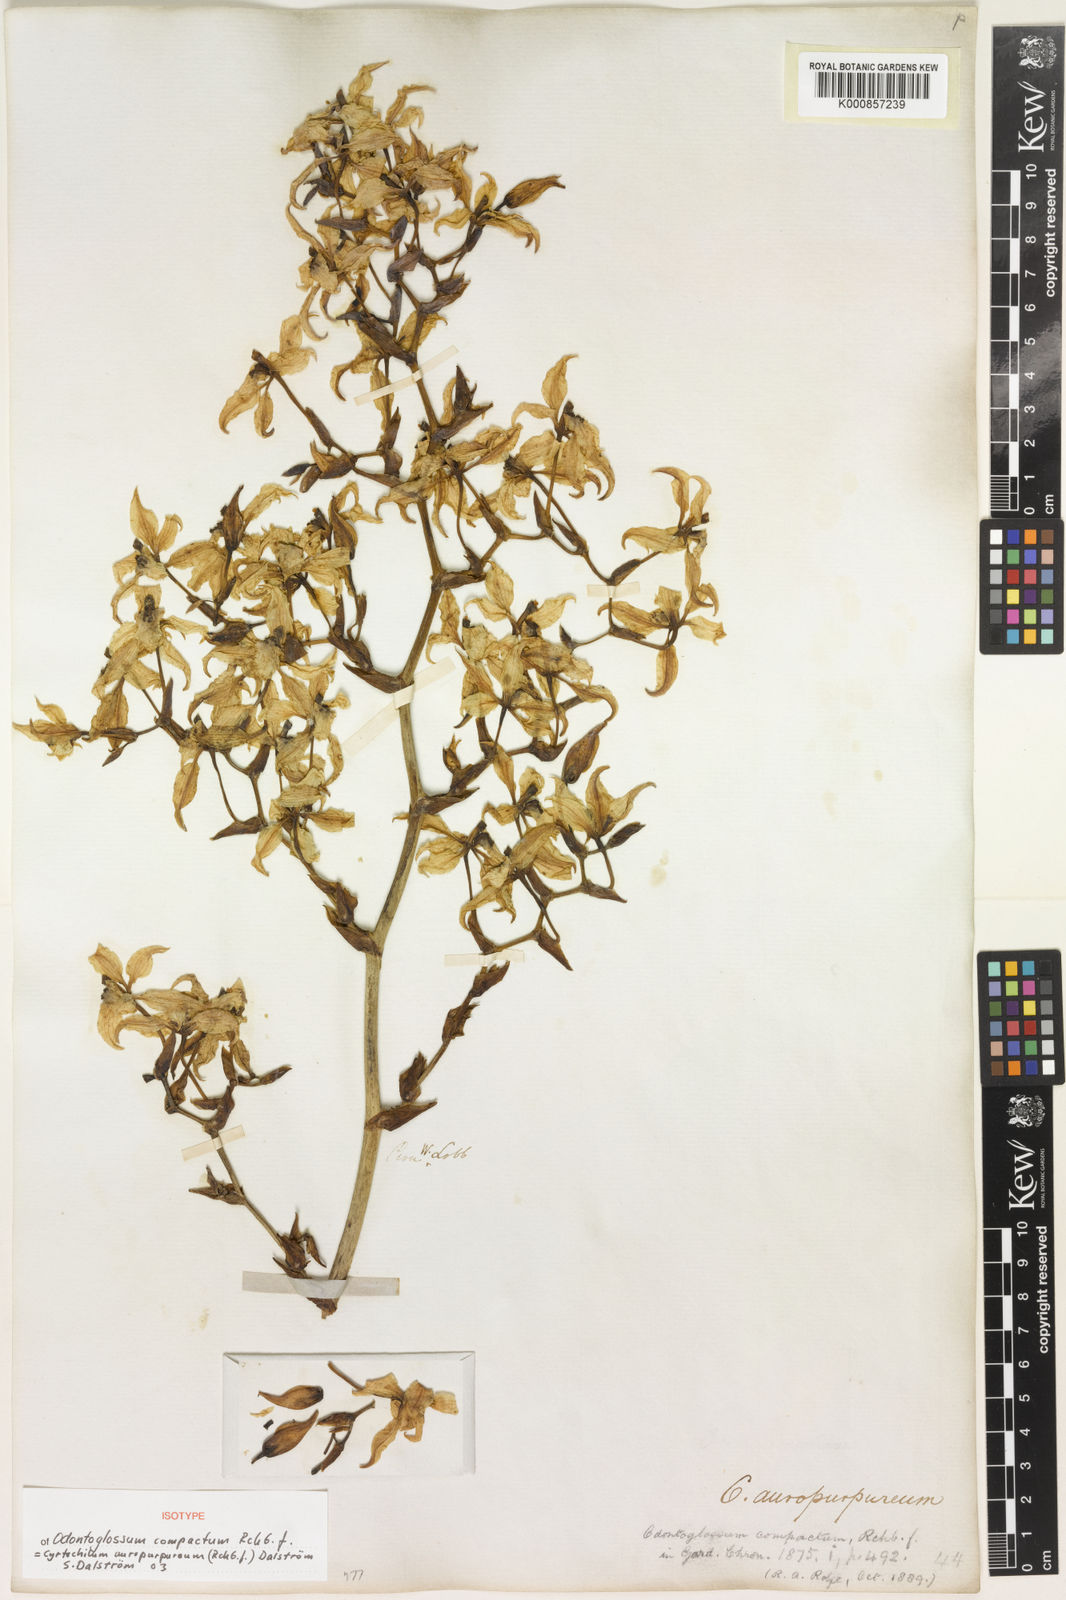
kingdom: Plantae
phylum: Tracheophyta
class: Liliopsida
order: Asparagales
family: Orchidaceae
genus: Cyrtochilum
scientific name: Cyrtochilum
